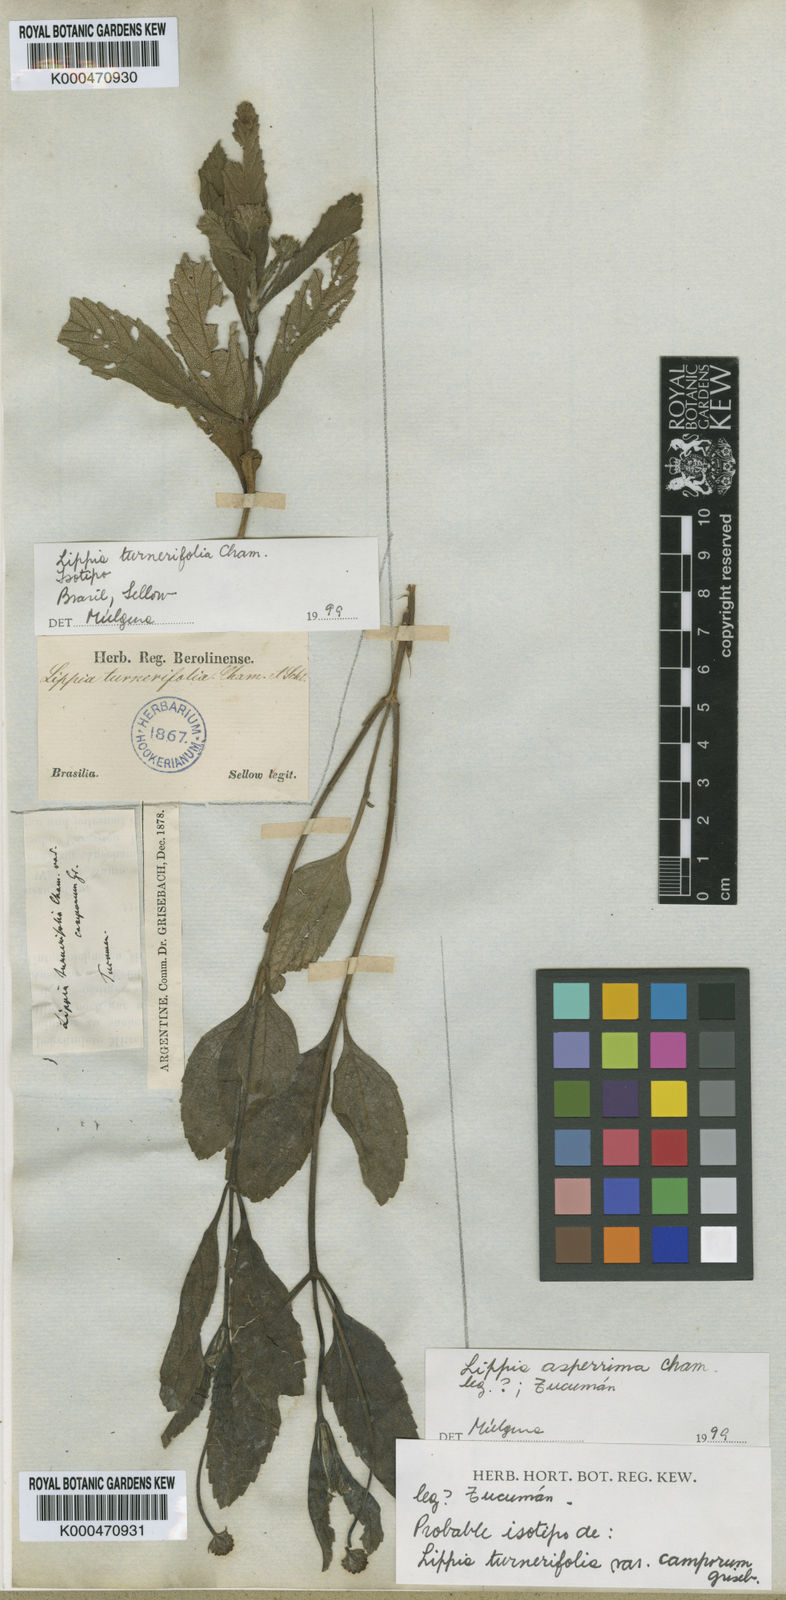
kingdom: Plantae
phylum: Tracheophyta
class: Magnoliopsida
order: Lamiales
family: Verbenaceae
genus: Lippia
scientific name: Lippia turnerifolia
